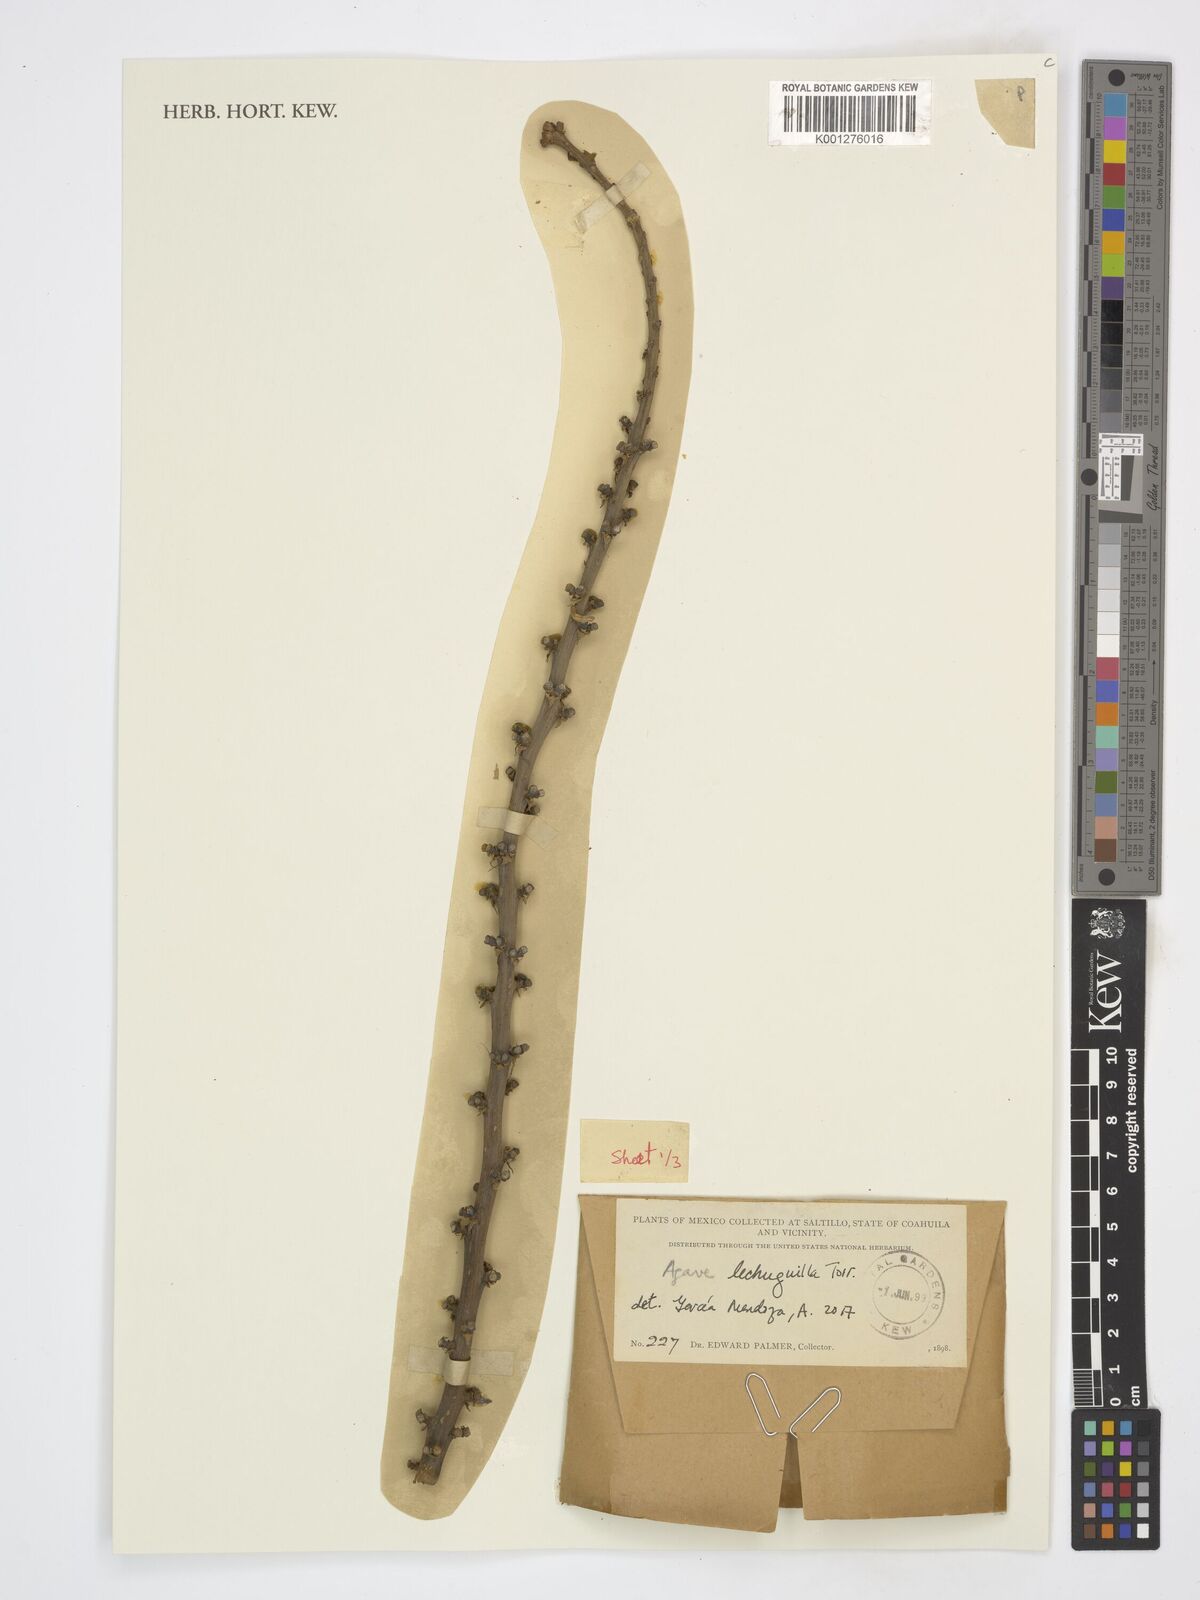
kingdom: Plantae
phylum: Tracheophyta
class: Liliopsida
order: Asparagales
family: Asparagaceae
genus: Agave
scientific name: Agave lechuguilla
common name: Lecheguilla agave
